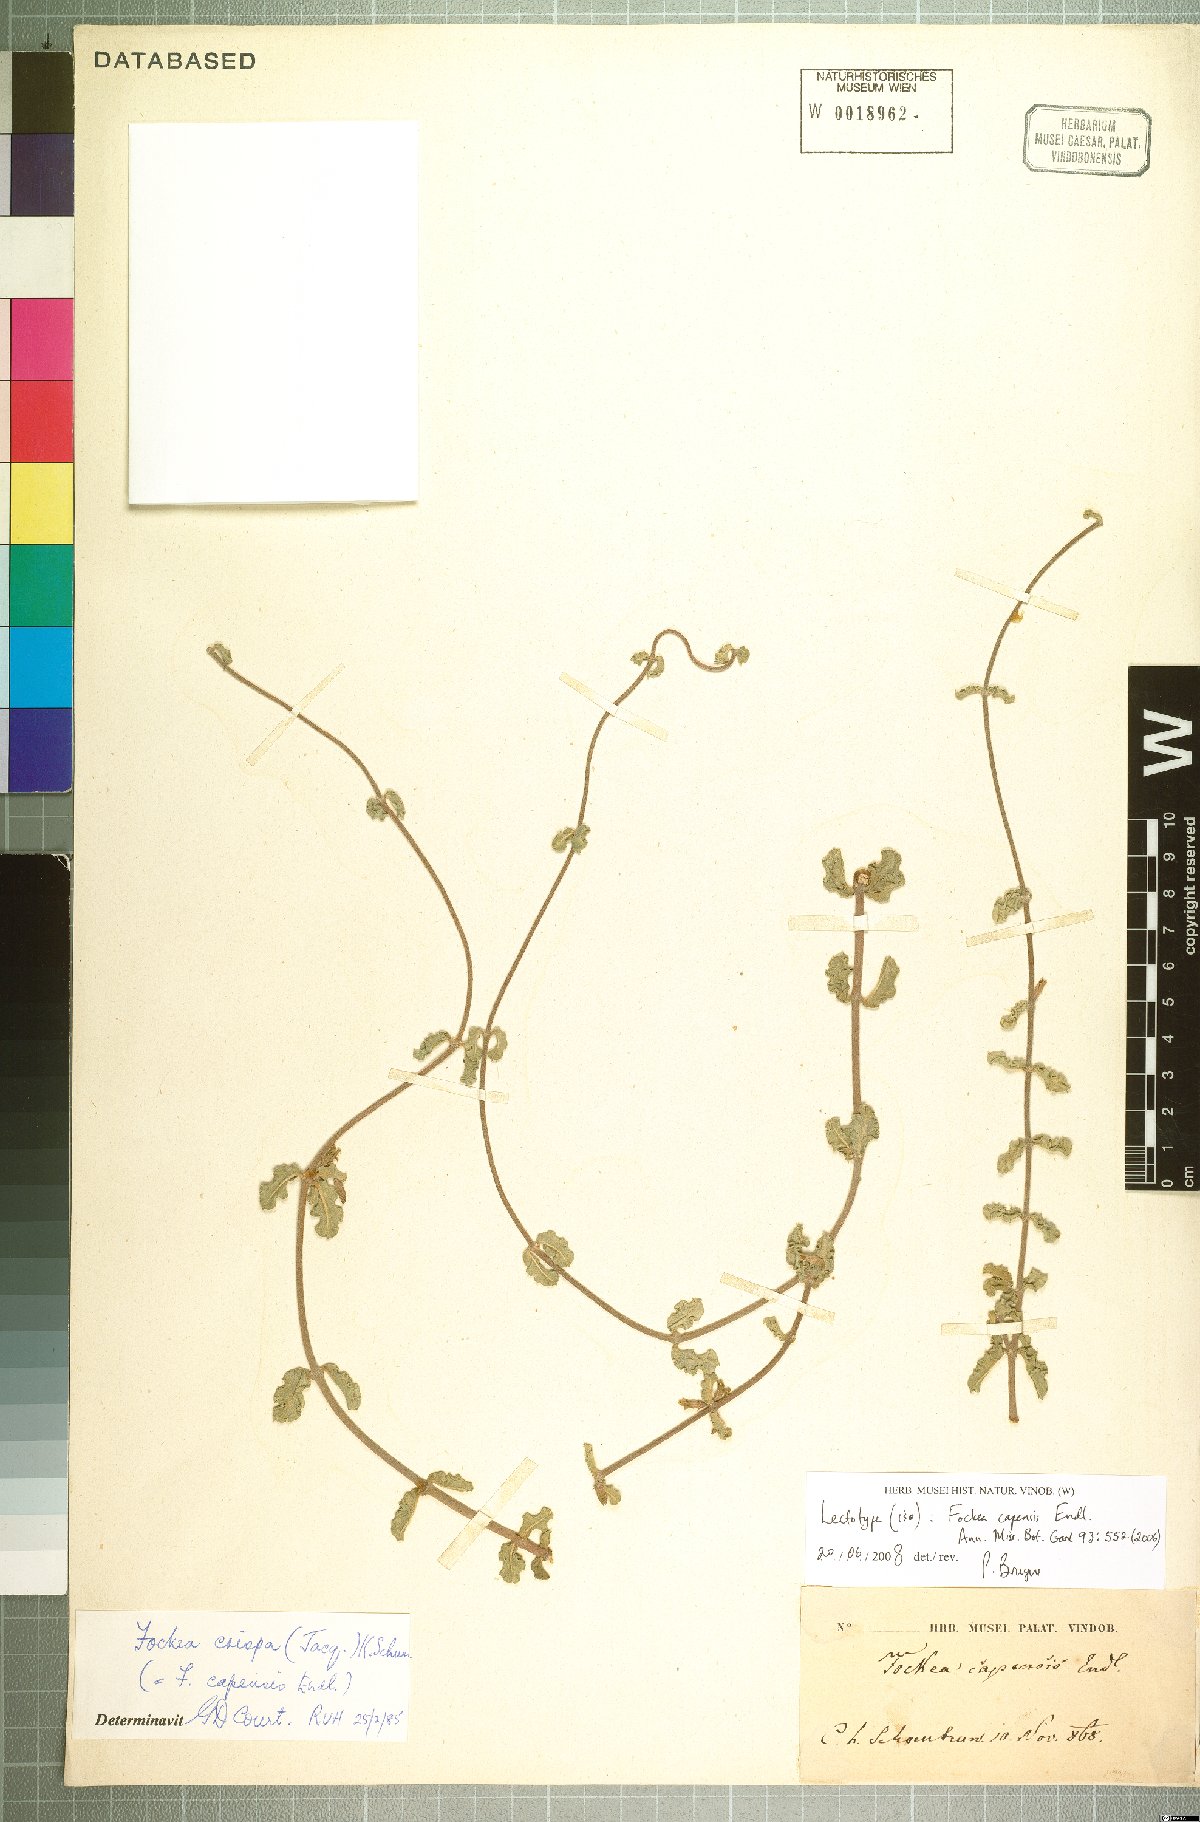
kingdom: Plantae
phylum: Tracheophyta
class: Magnoliopsida
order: Gentianales
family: Apocynaceae
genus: Fockea
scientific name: Fockea capensis
